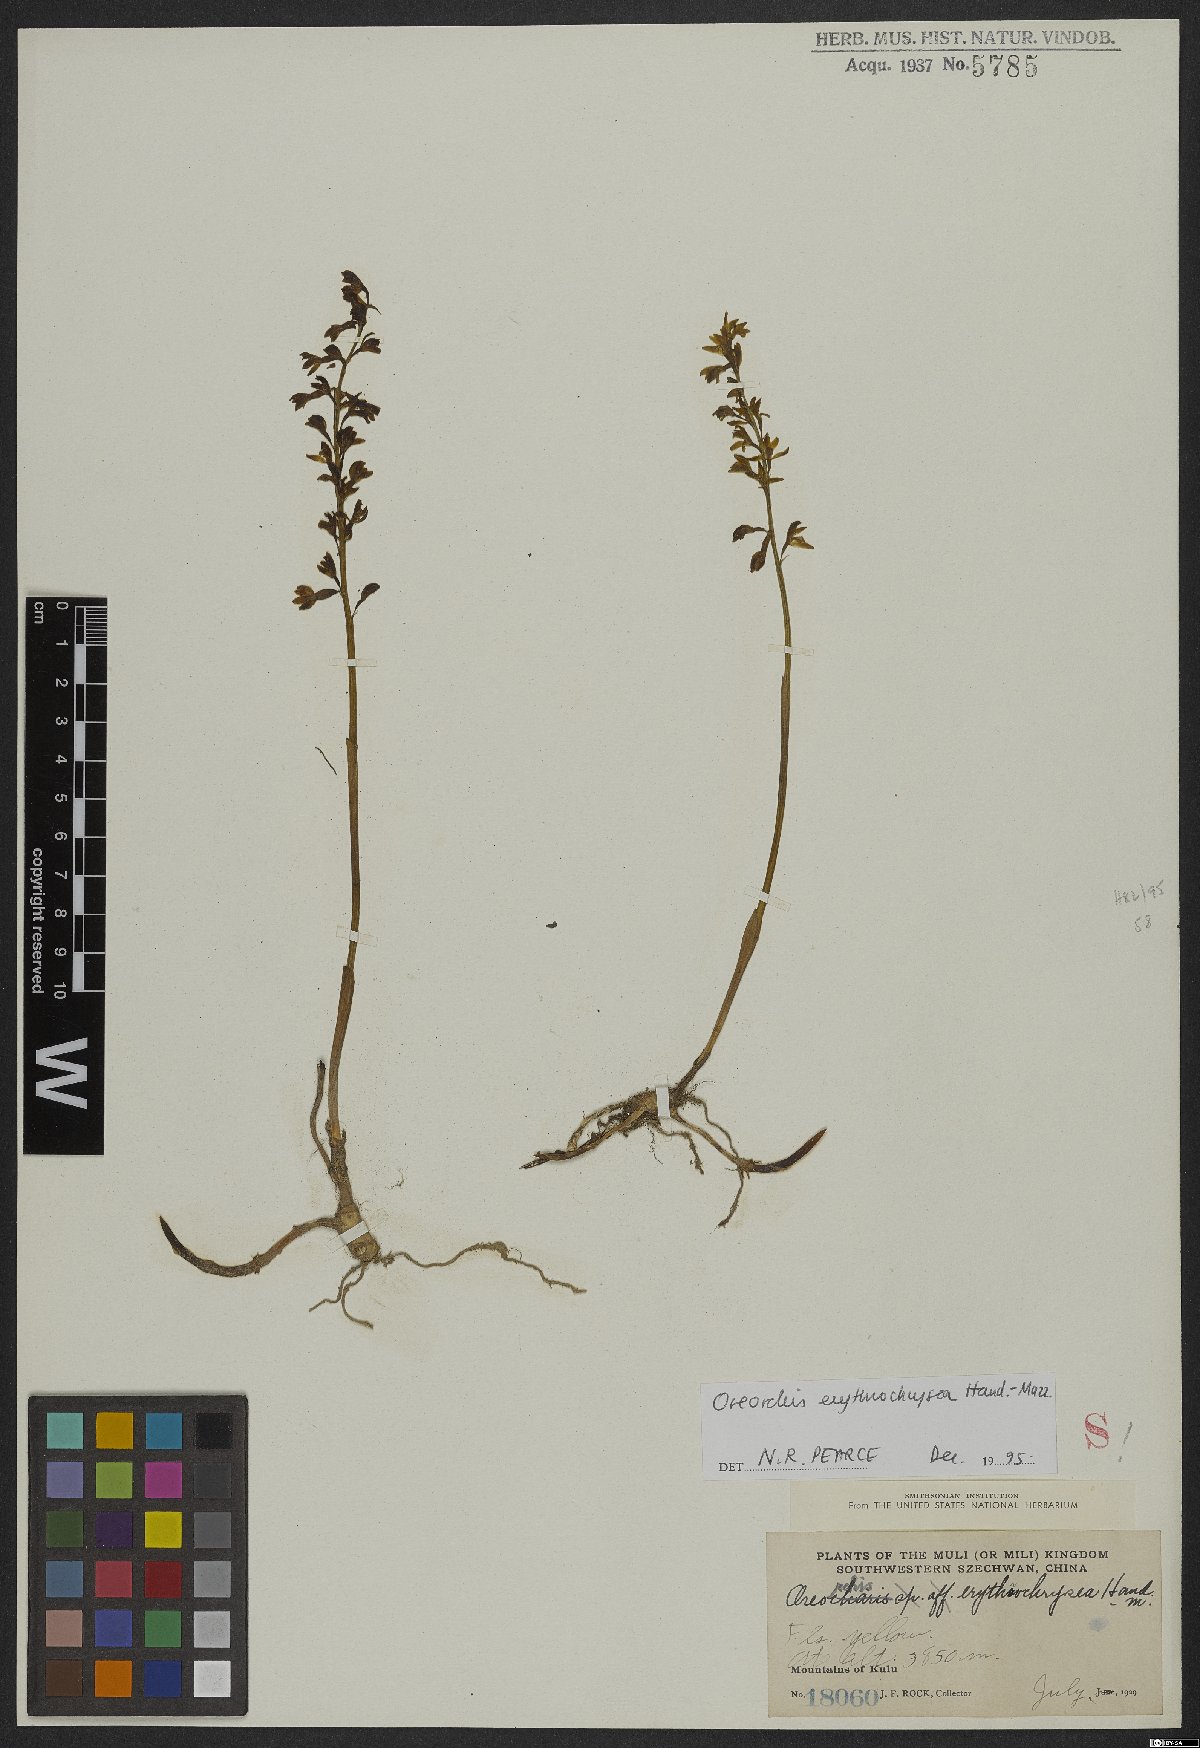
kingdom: Plantae
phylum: Tracheophyta
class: Liliopsida
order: Asparagales
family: Orchidaceae
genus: Oreorchis
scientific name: Oreorchis erythrochrysea
